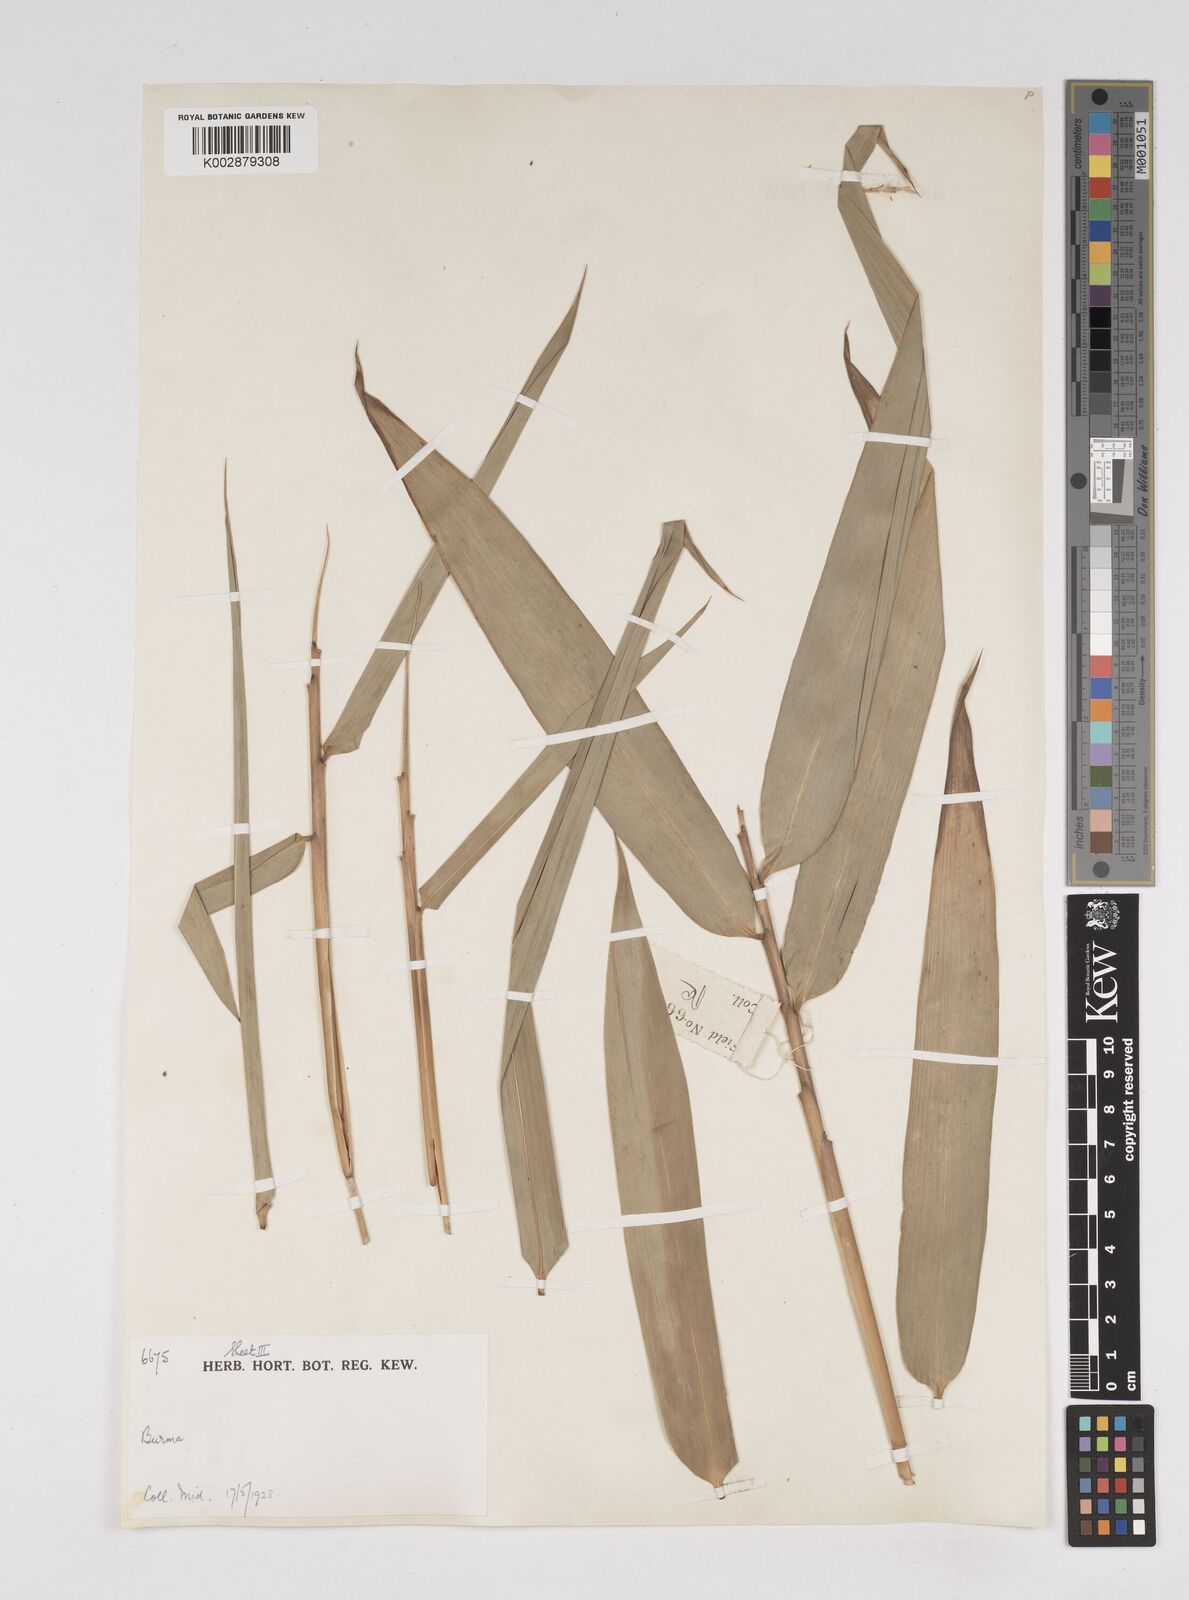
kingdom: Plantae
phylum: Tracheophyta
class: Liliopsida
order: Poales
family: Poaceae
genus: Dendrocalamus
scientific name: Dendrocalamus
